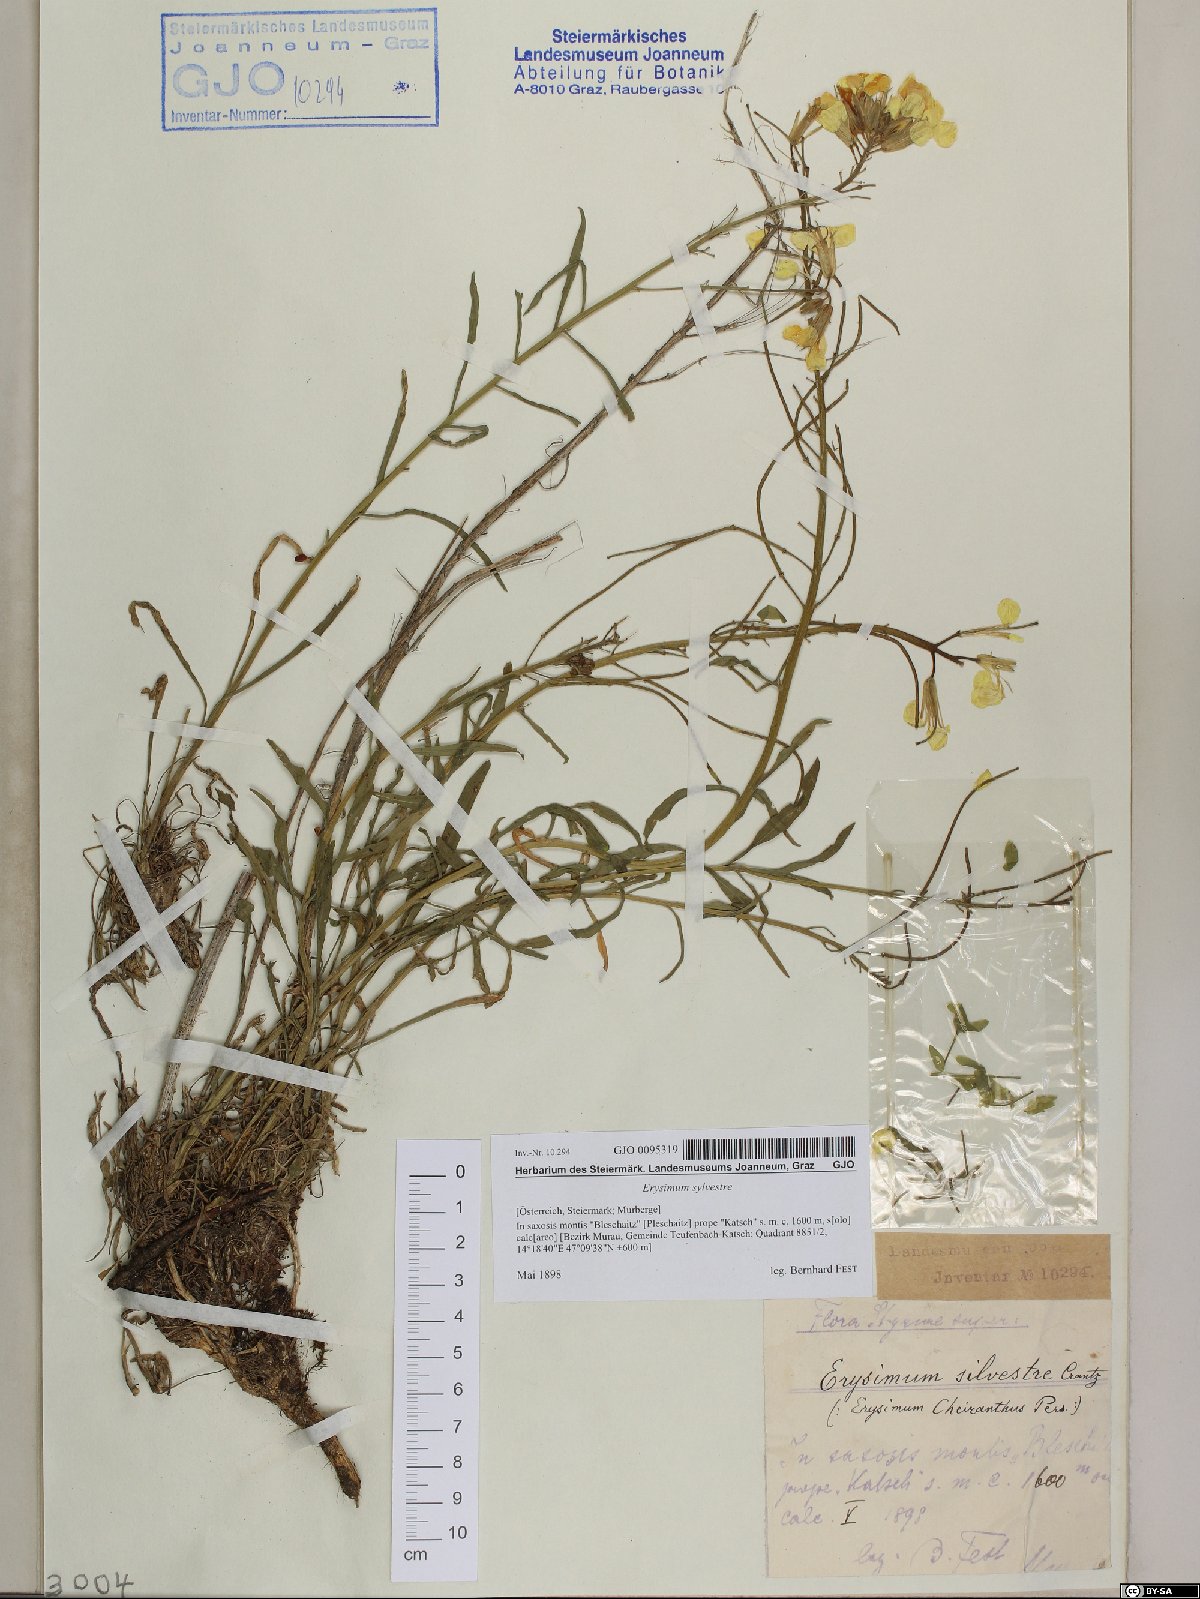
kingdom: Plantae
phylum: Tracheophyta
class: Magnoliopsida
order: Brassicales
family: Brassicaceae
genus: Erysimum
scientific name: Erysimum sylvestre
